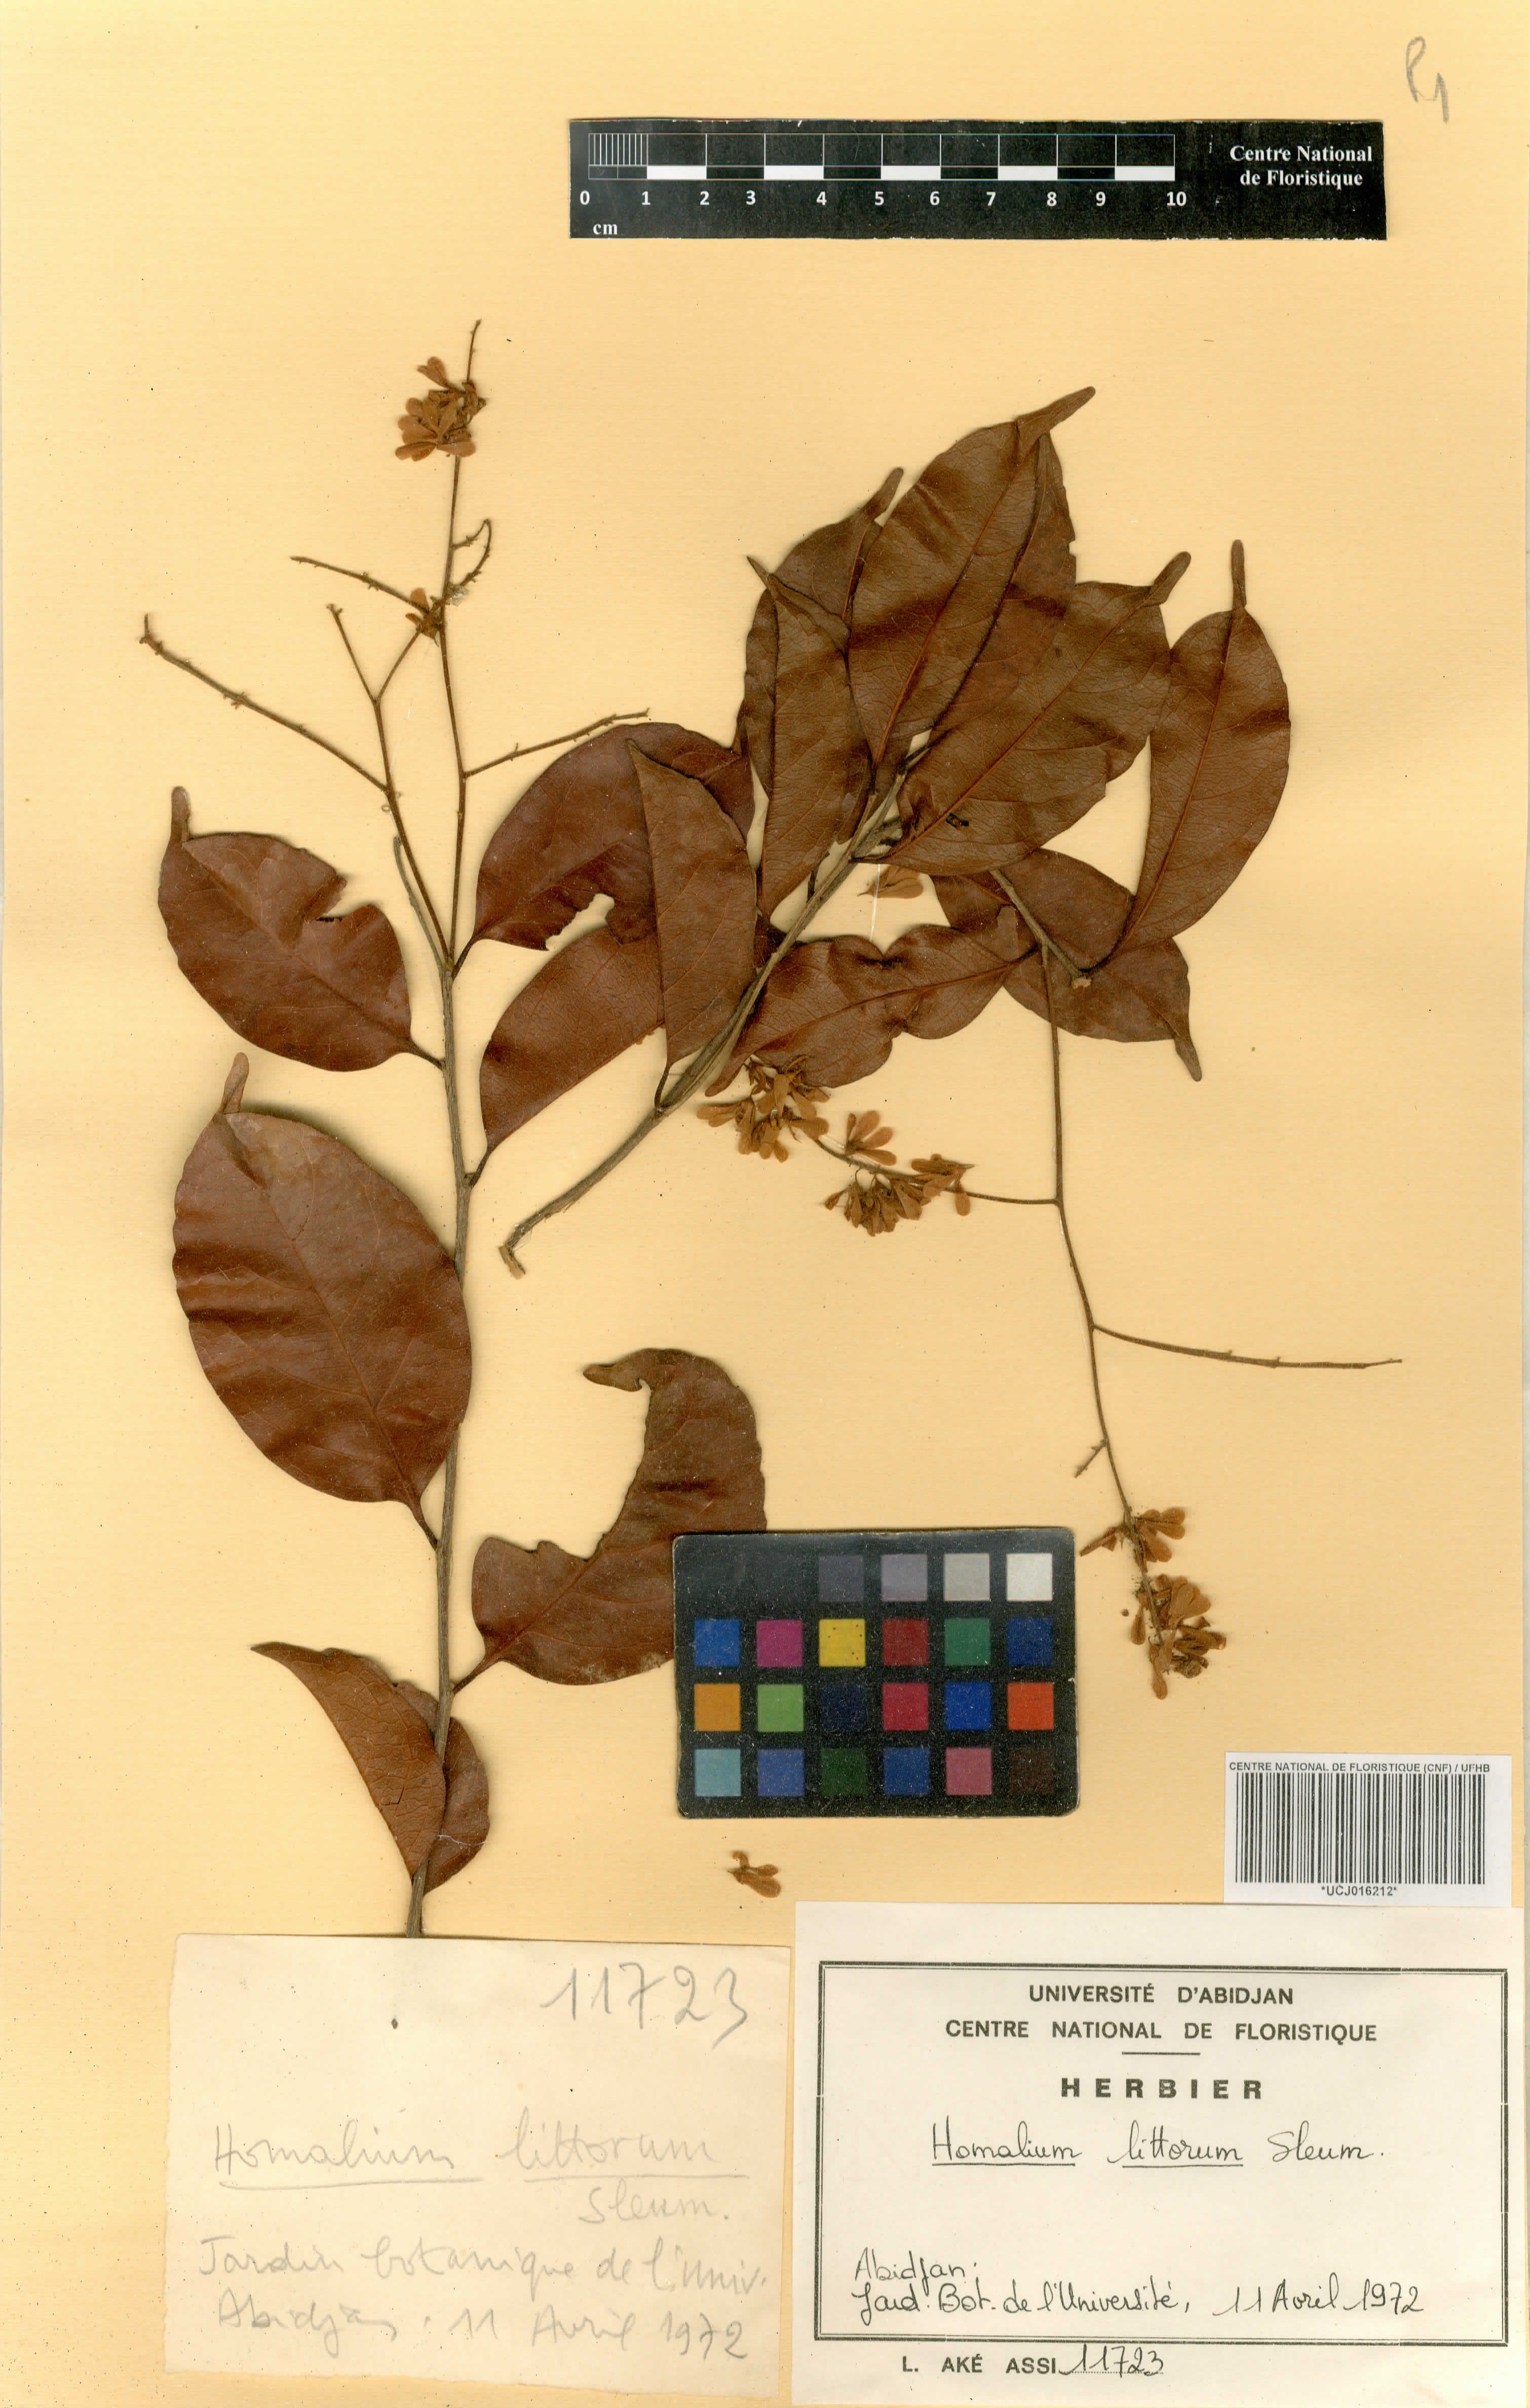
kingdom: Plantae
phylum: Tracheophyta
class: Magnoliopsida
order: Malpighiales
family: Salicaceae
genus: Homalium
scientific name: Homalium
